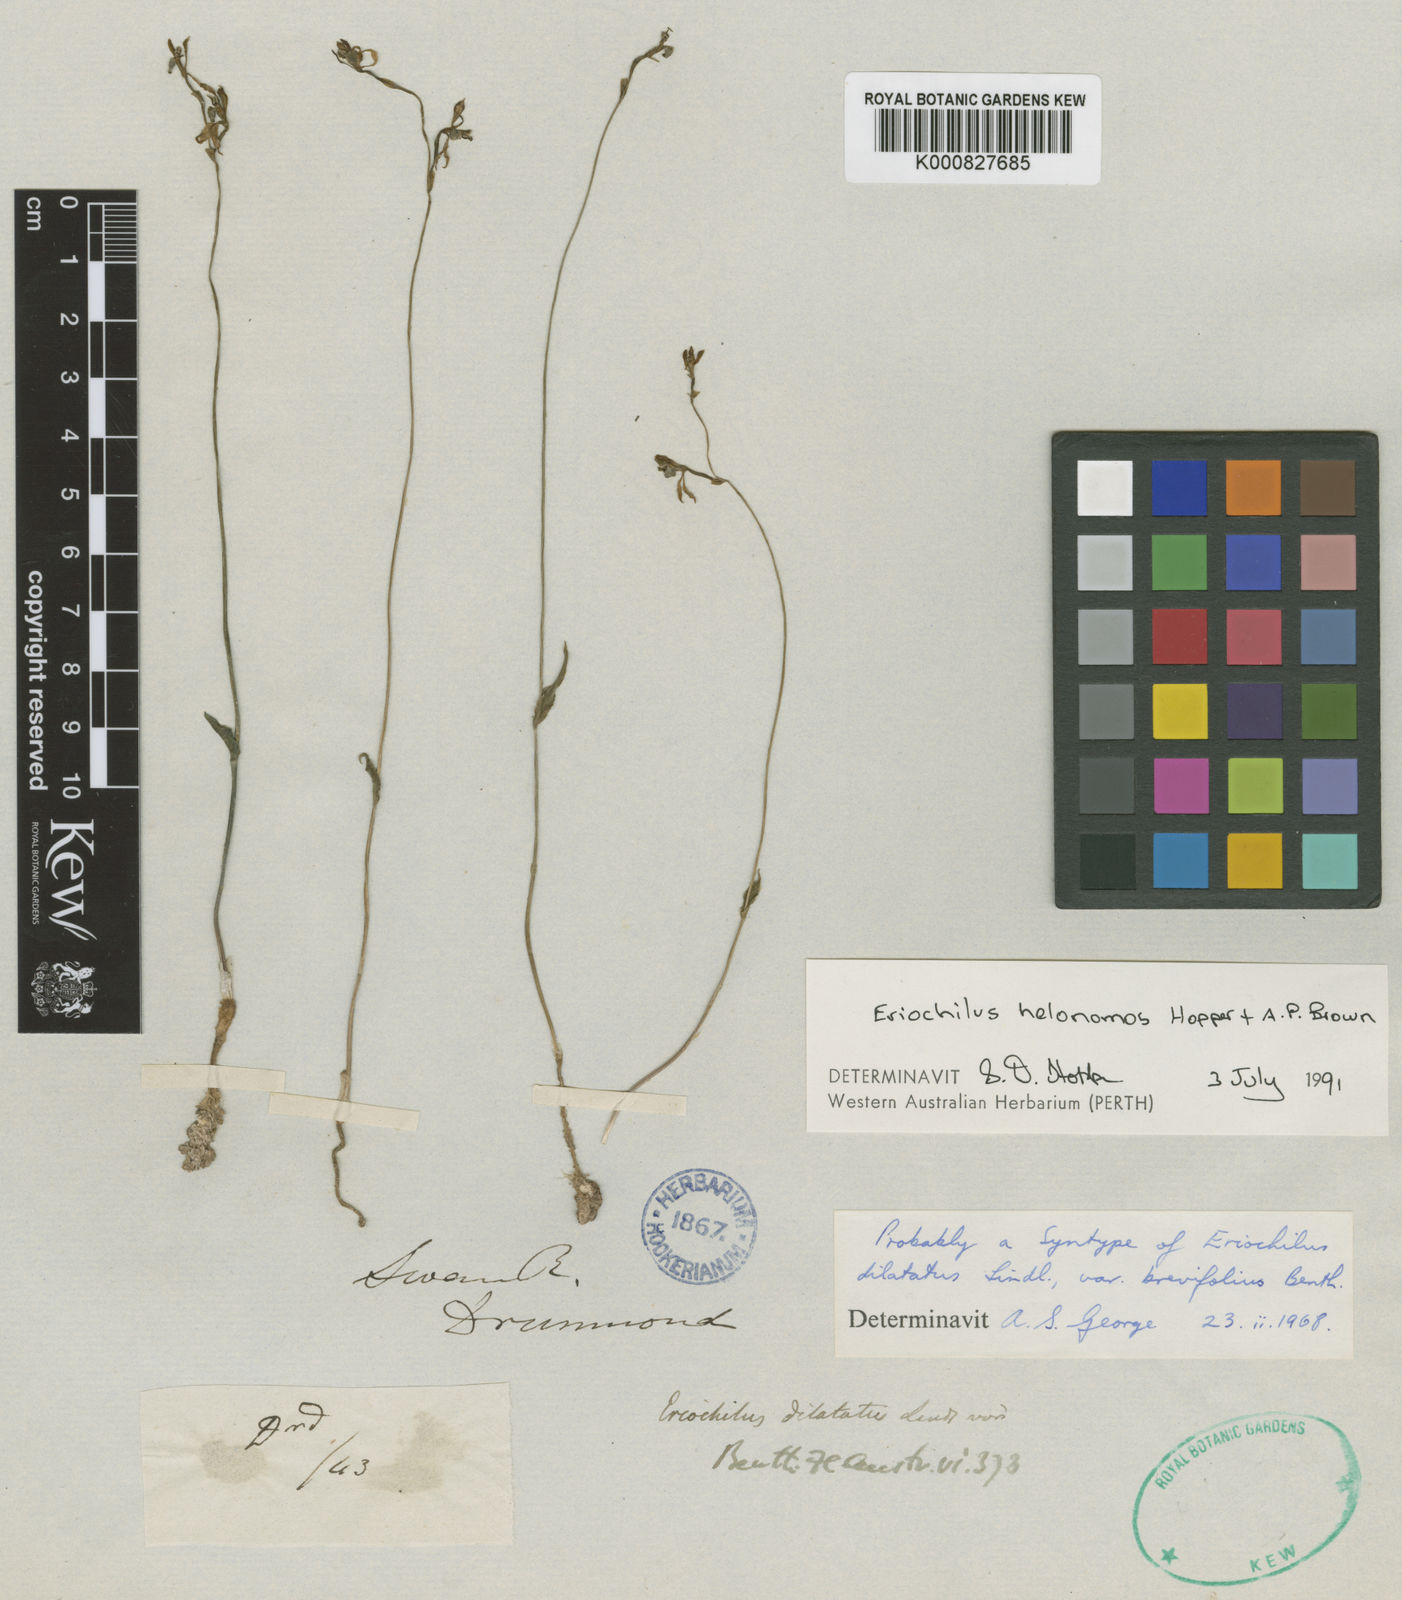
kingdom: Plantae
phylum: Tracheophyta
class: Liliopsida
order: Asparagales
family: Orchidaceae
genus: Eriochilus
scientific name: Eriochilus dilatatus
